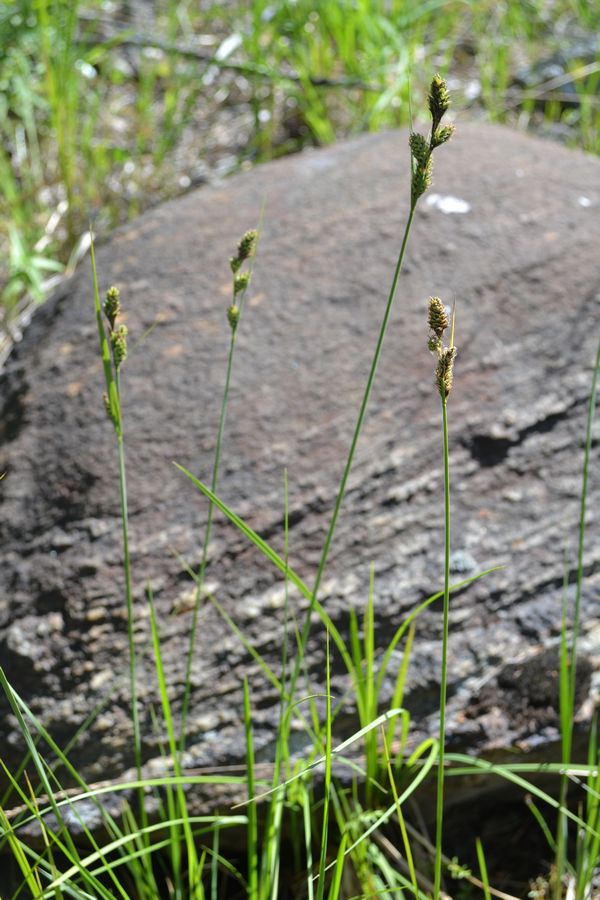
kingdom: Plantae
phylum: Tracheophyta
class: Liliopsida
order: Poales
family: Cyperaceae
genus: Carex
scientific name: Carex buxbaumii
